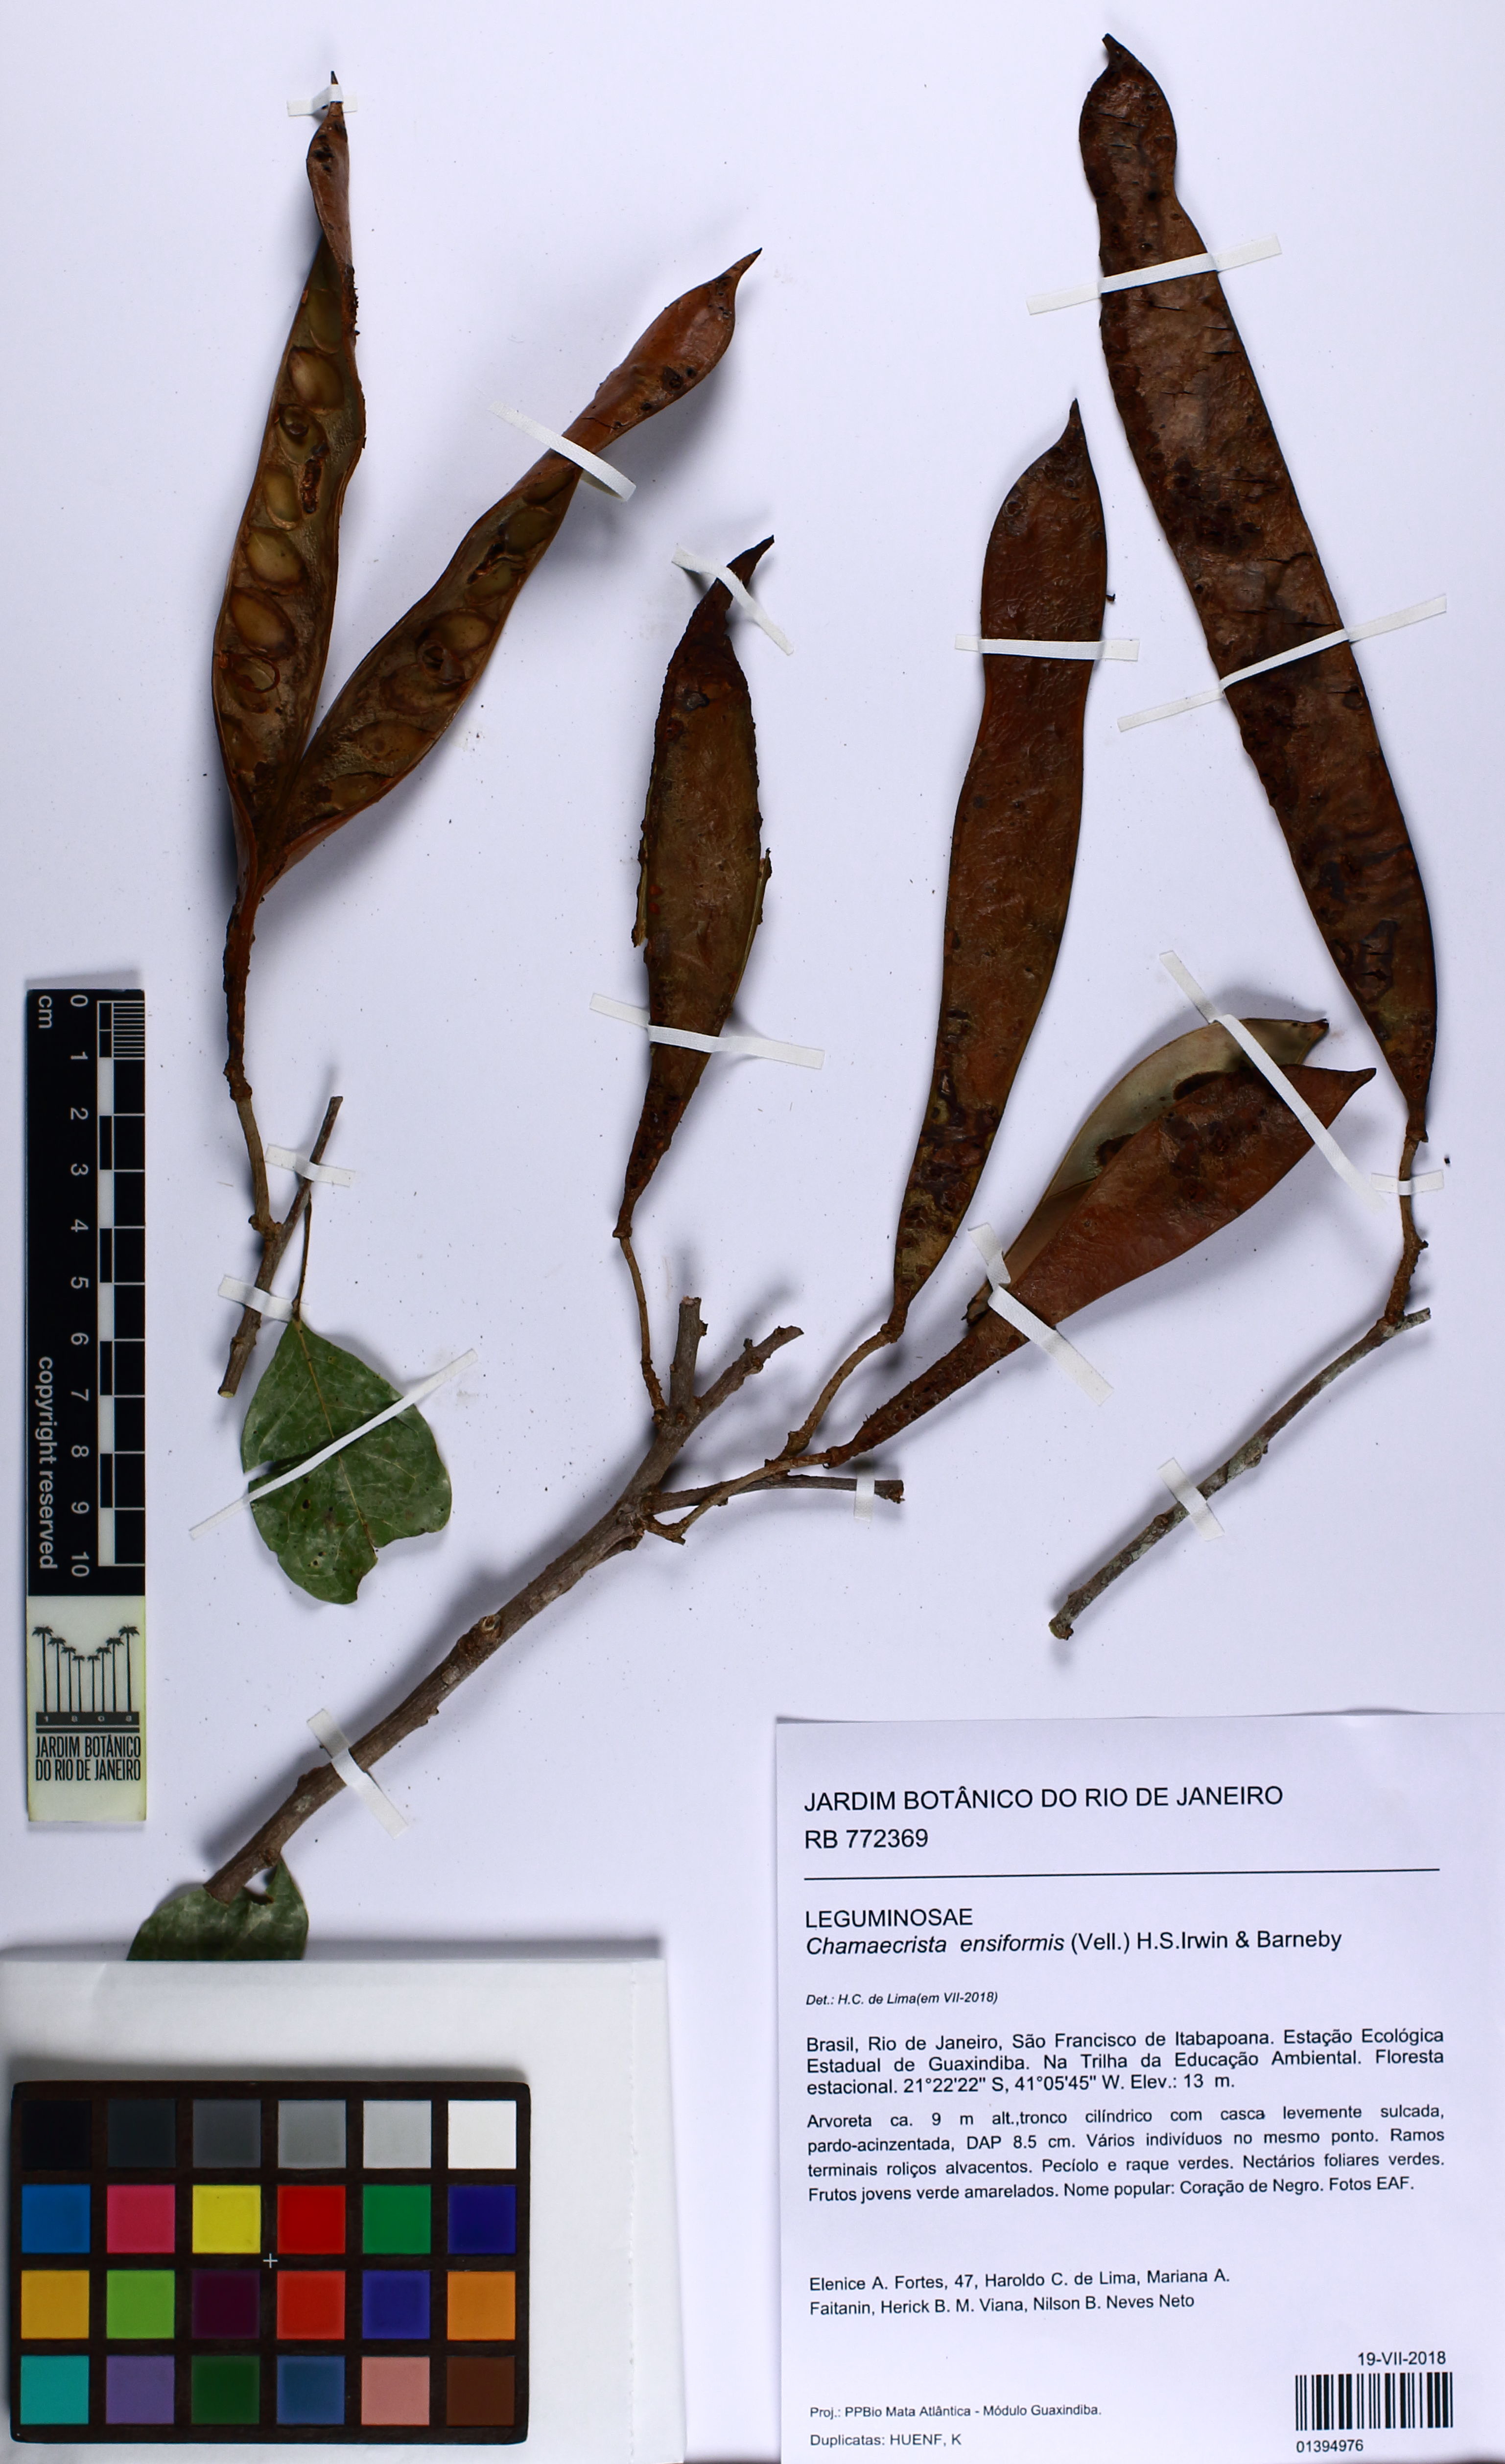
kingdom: Plantae
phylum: Tracheophyta
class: Magnoliopsida
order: Fabales
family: Fabaceae
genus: Chamaecrista
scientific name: Chamaecrista ensiformis
